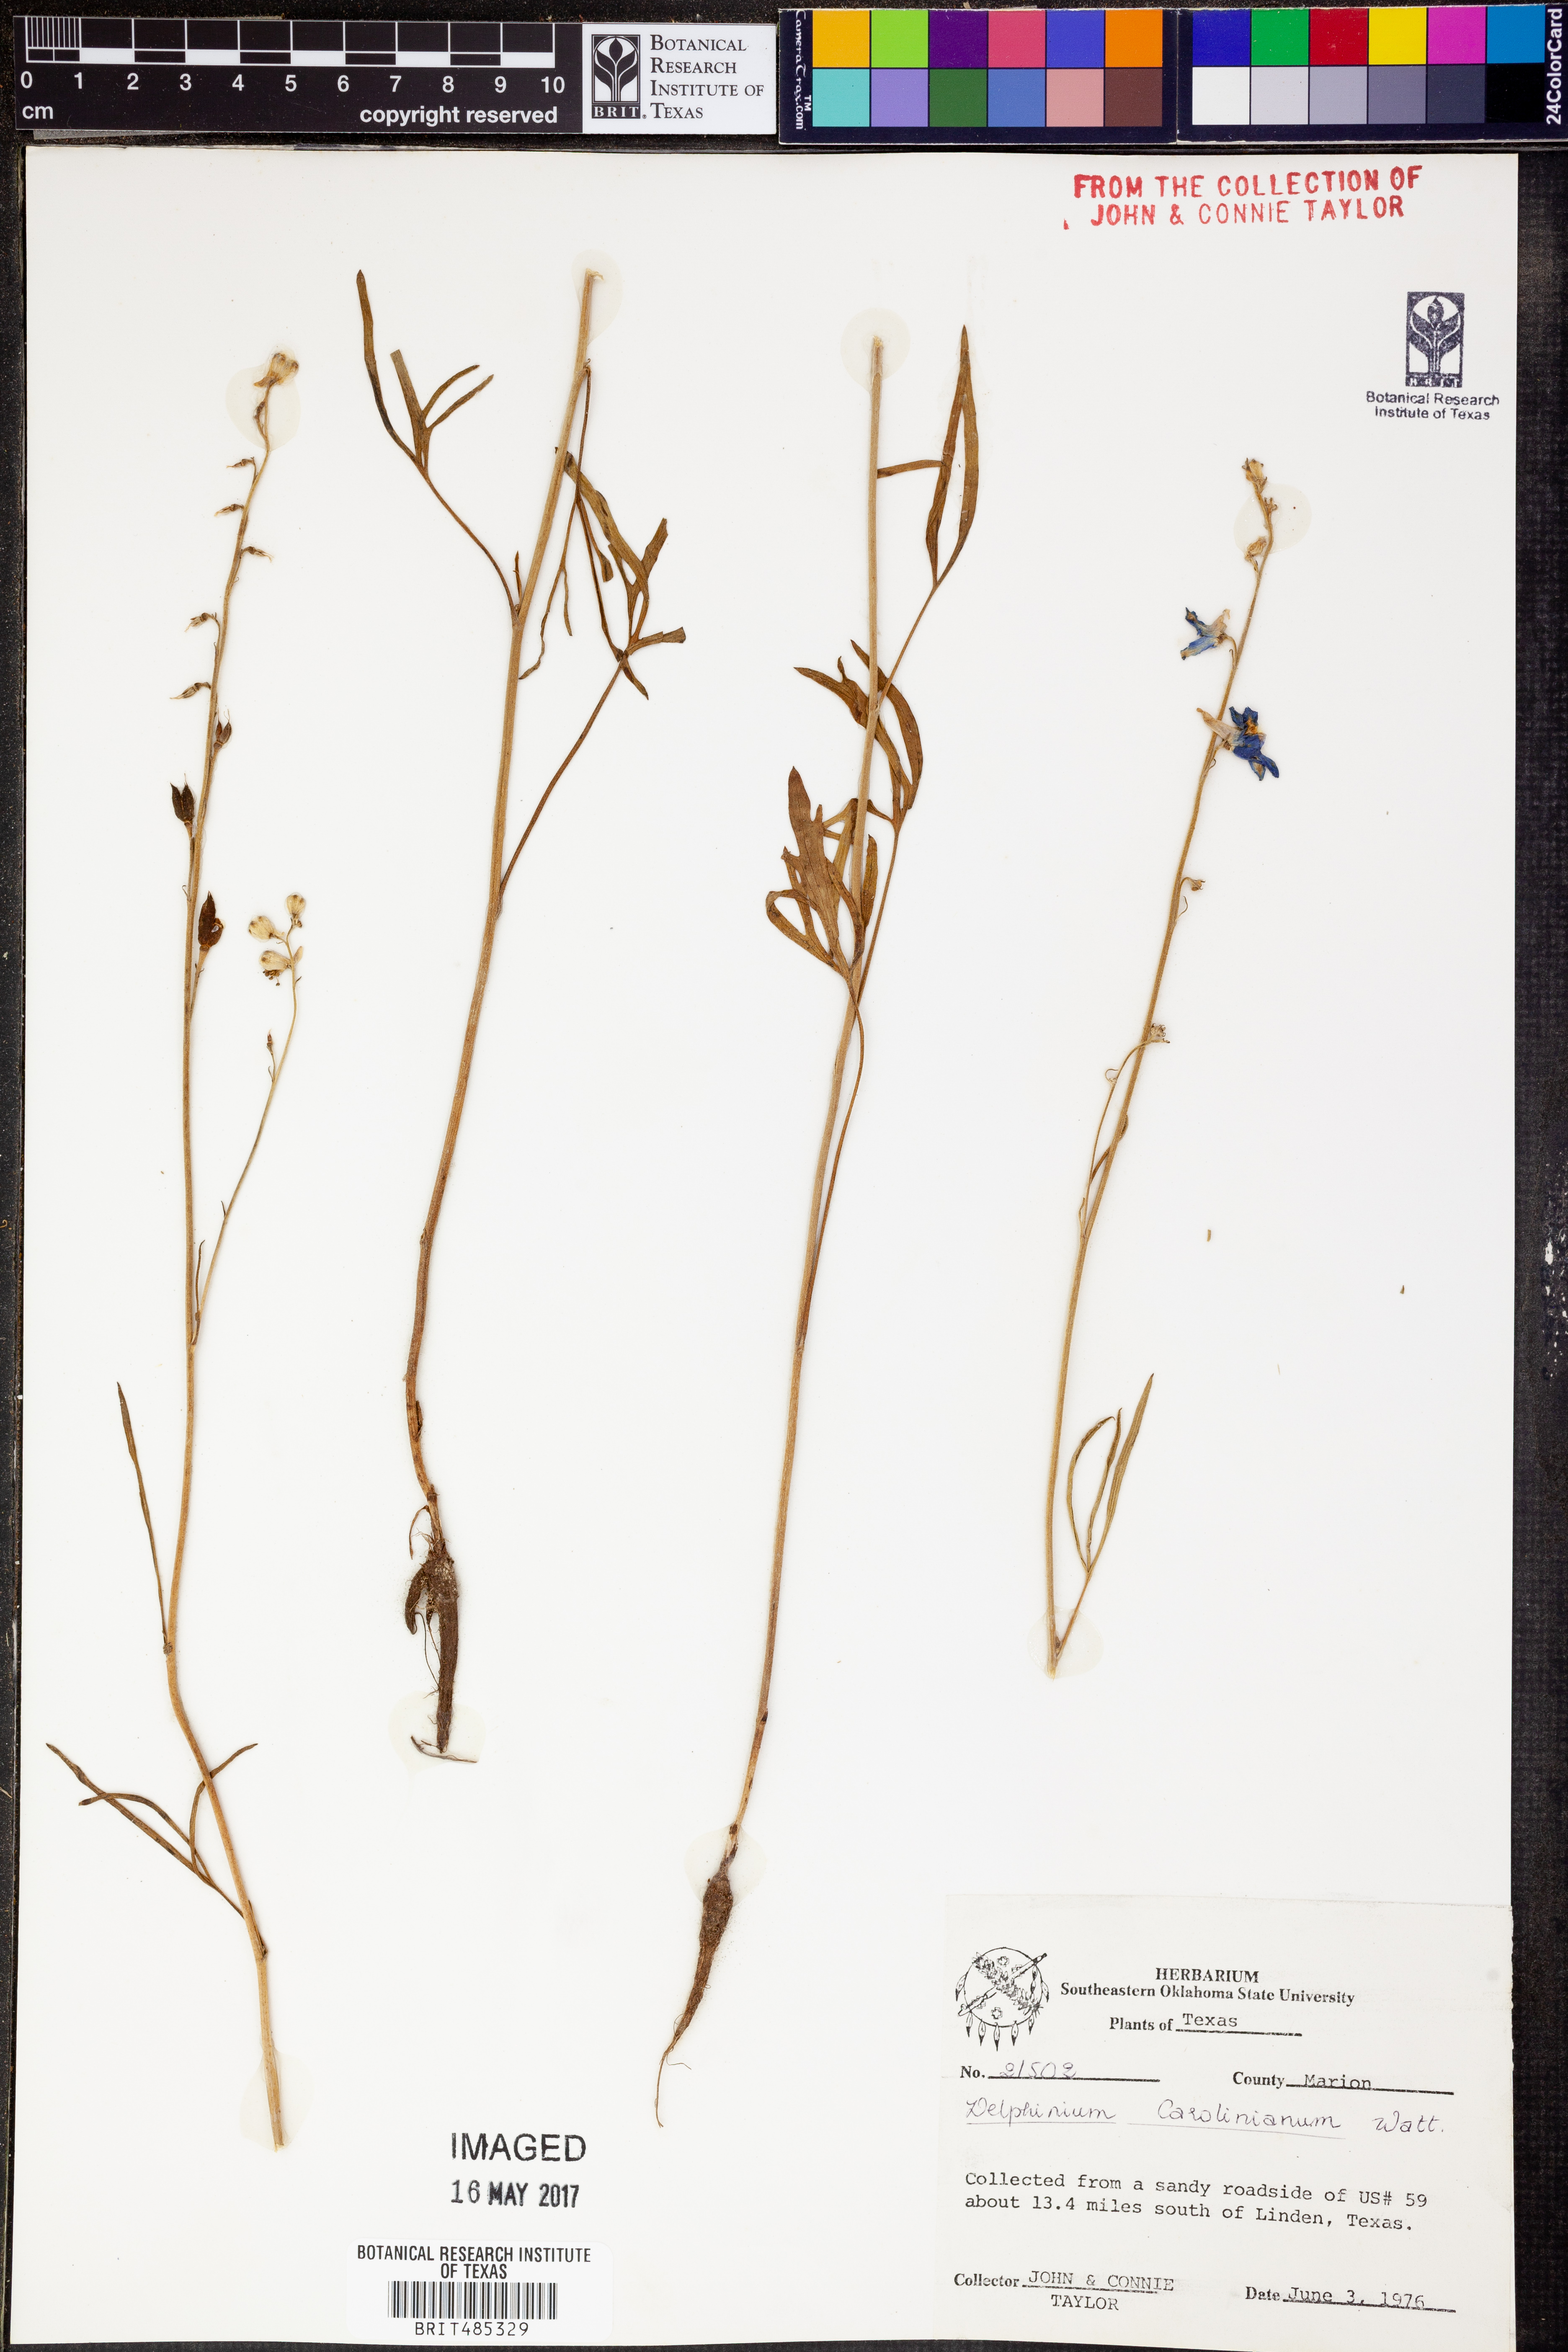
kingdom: Plantae
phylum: Tracheophyta
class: Magnoliopsida
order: Ranunculales
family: Ranunculaceae
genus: Delphinium
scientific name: Delphinium carolinianum
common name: Carolina larkspur
